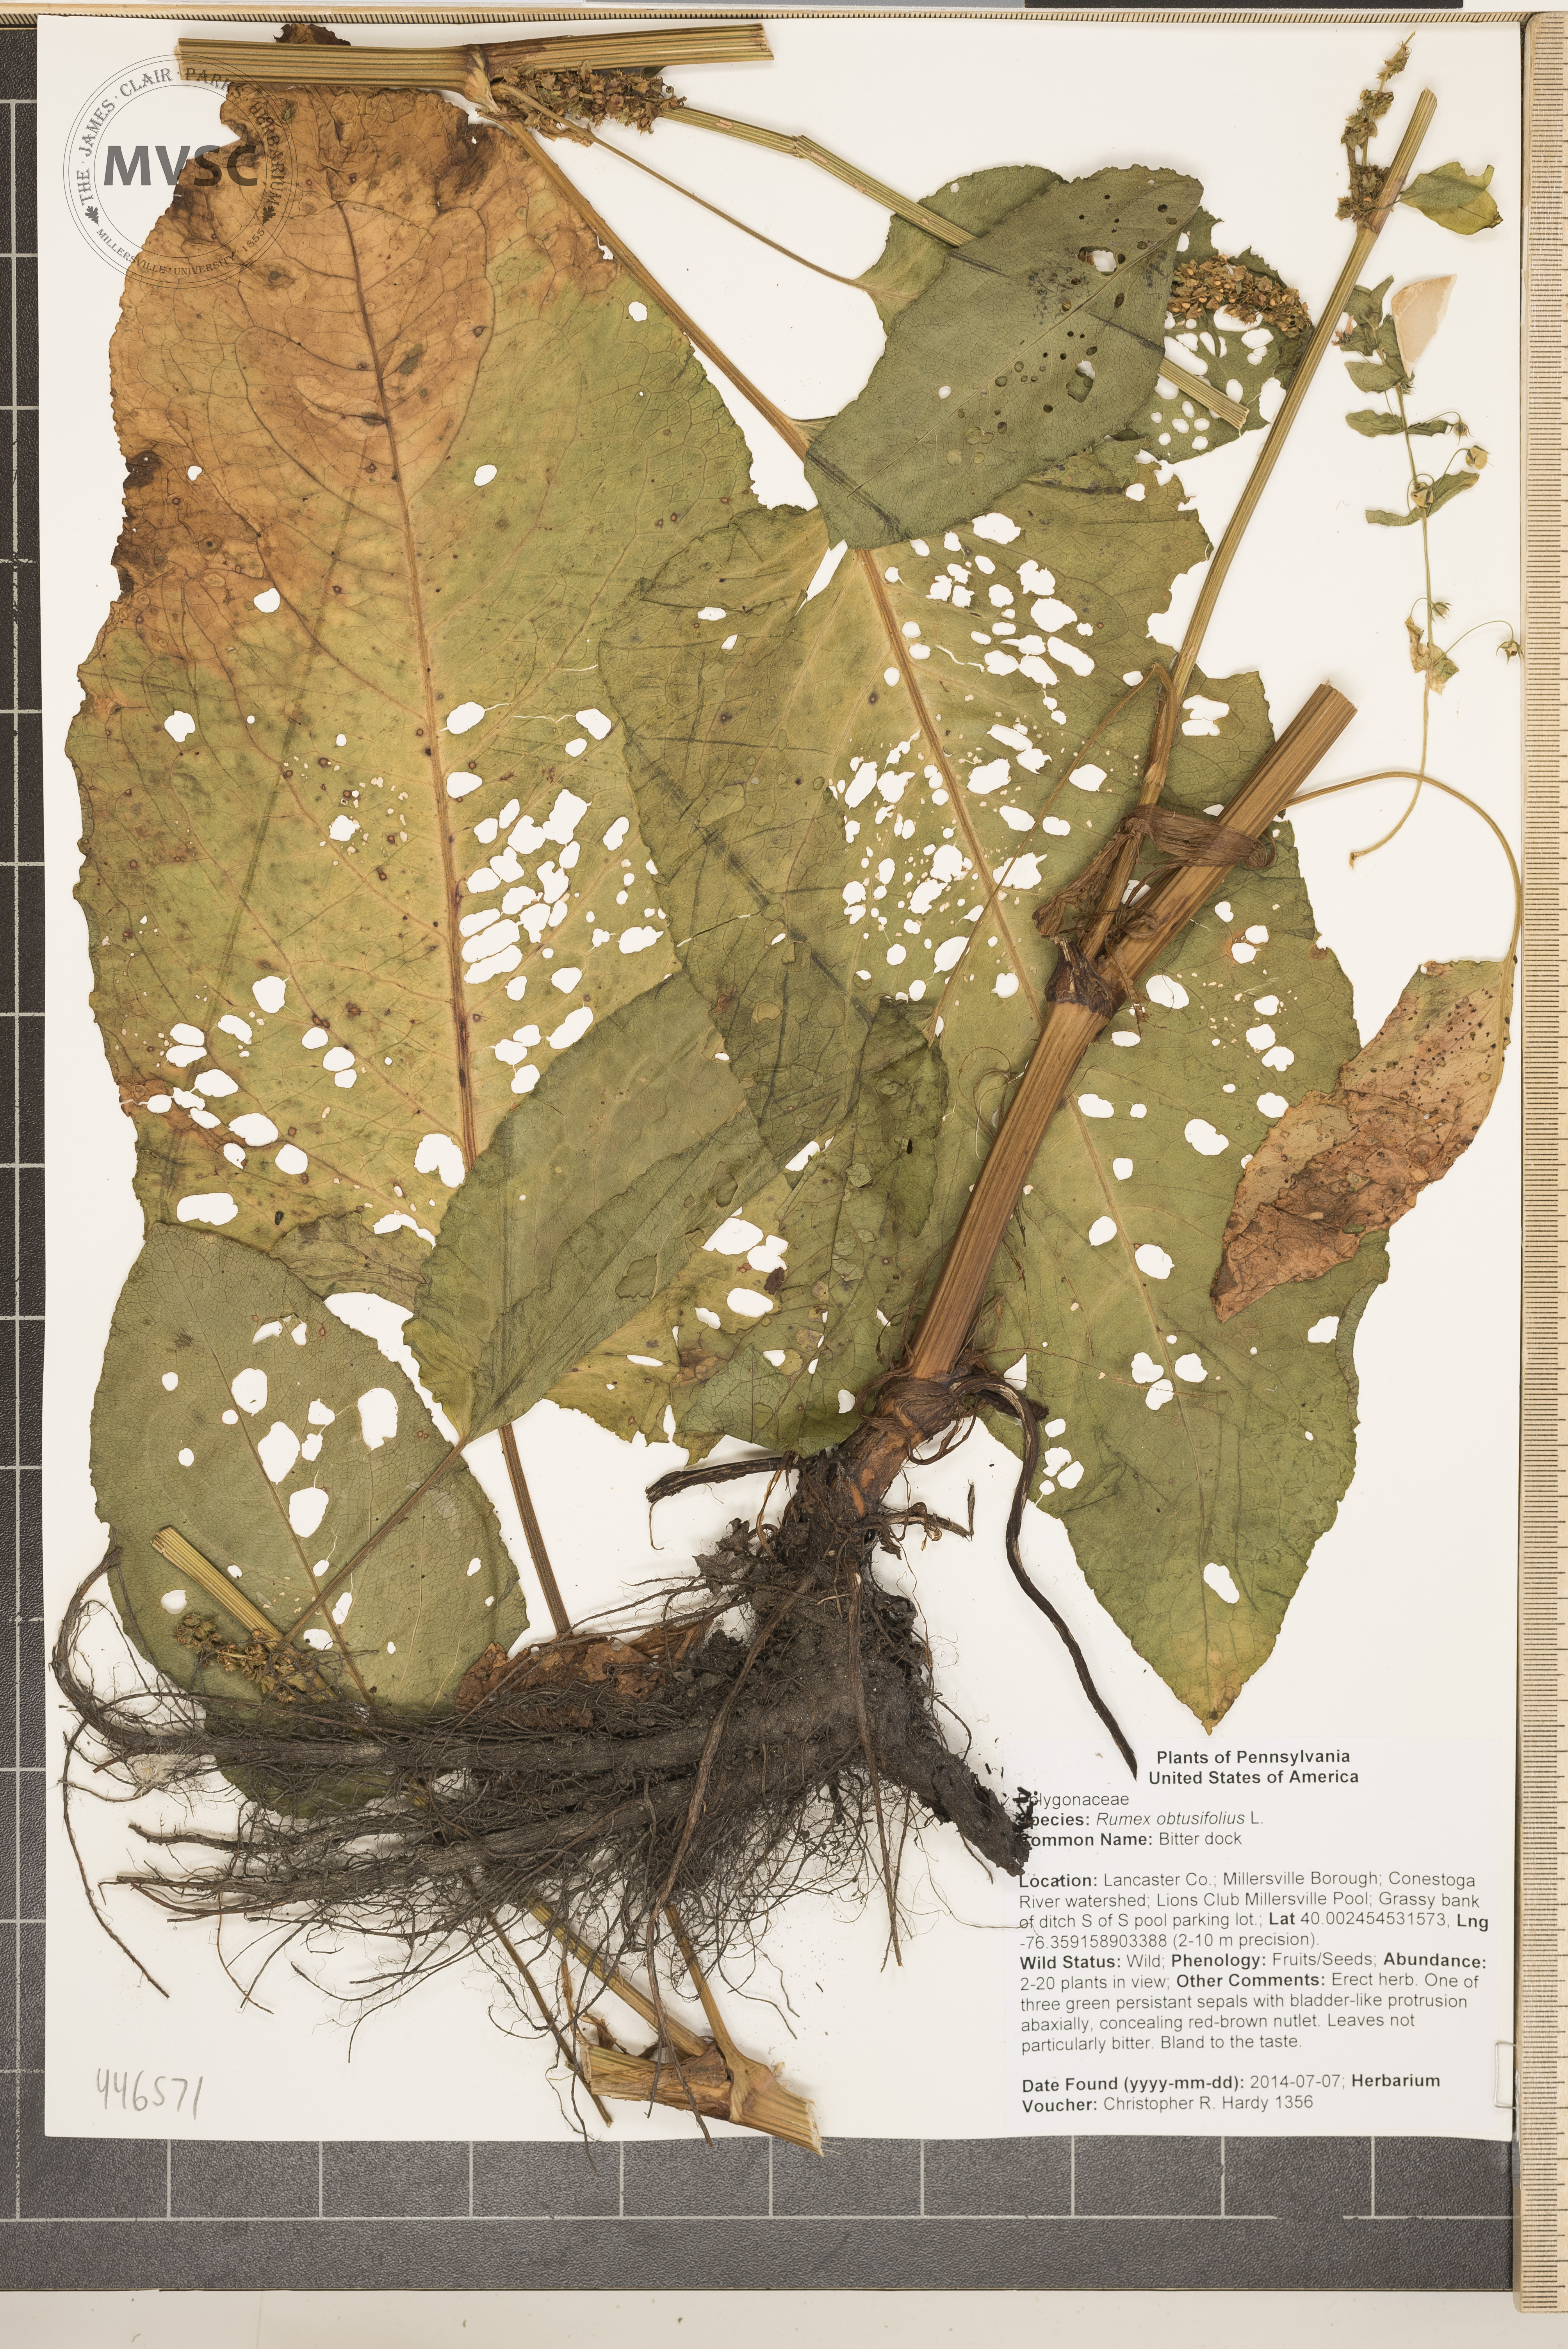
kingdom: Plantae
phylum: Tracheophyta
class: Magnoliopsida
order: Caryophyllales
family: Polygonaceae
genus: Rumex
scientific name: Rumex obtusifolius
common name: Bitter dock
